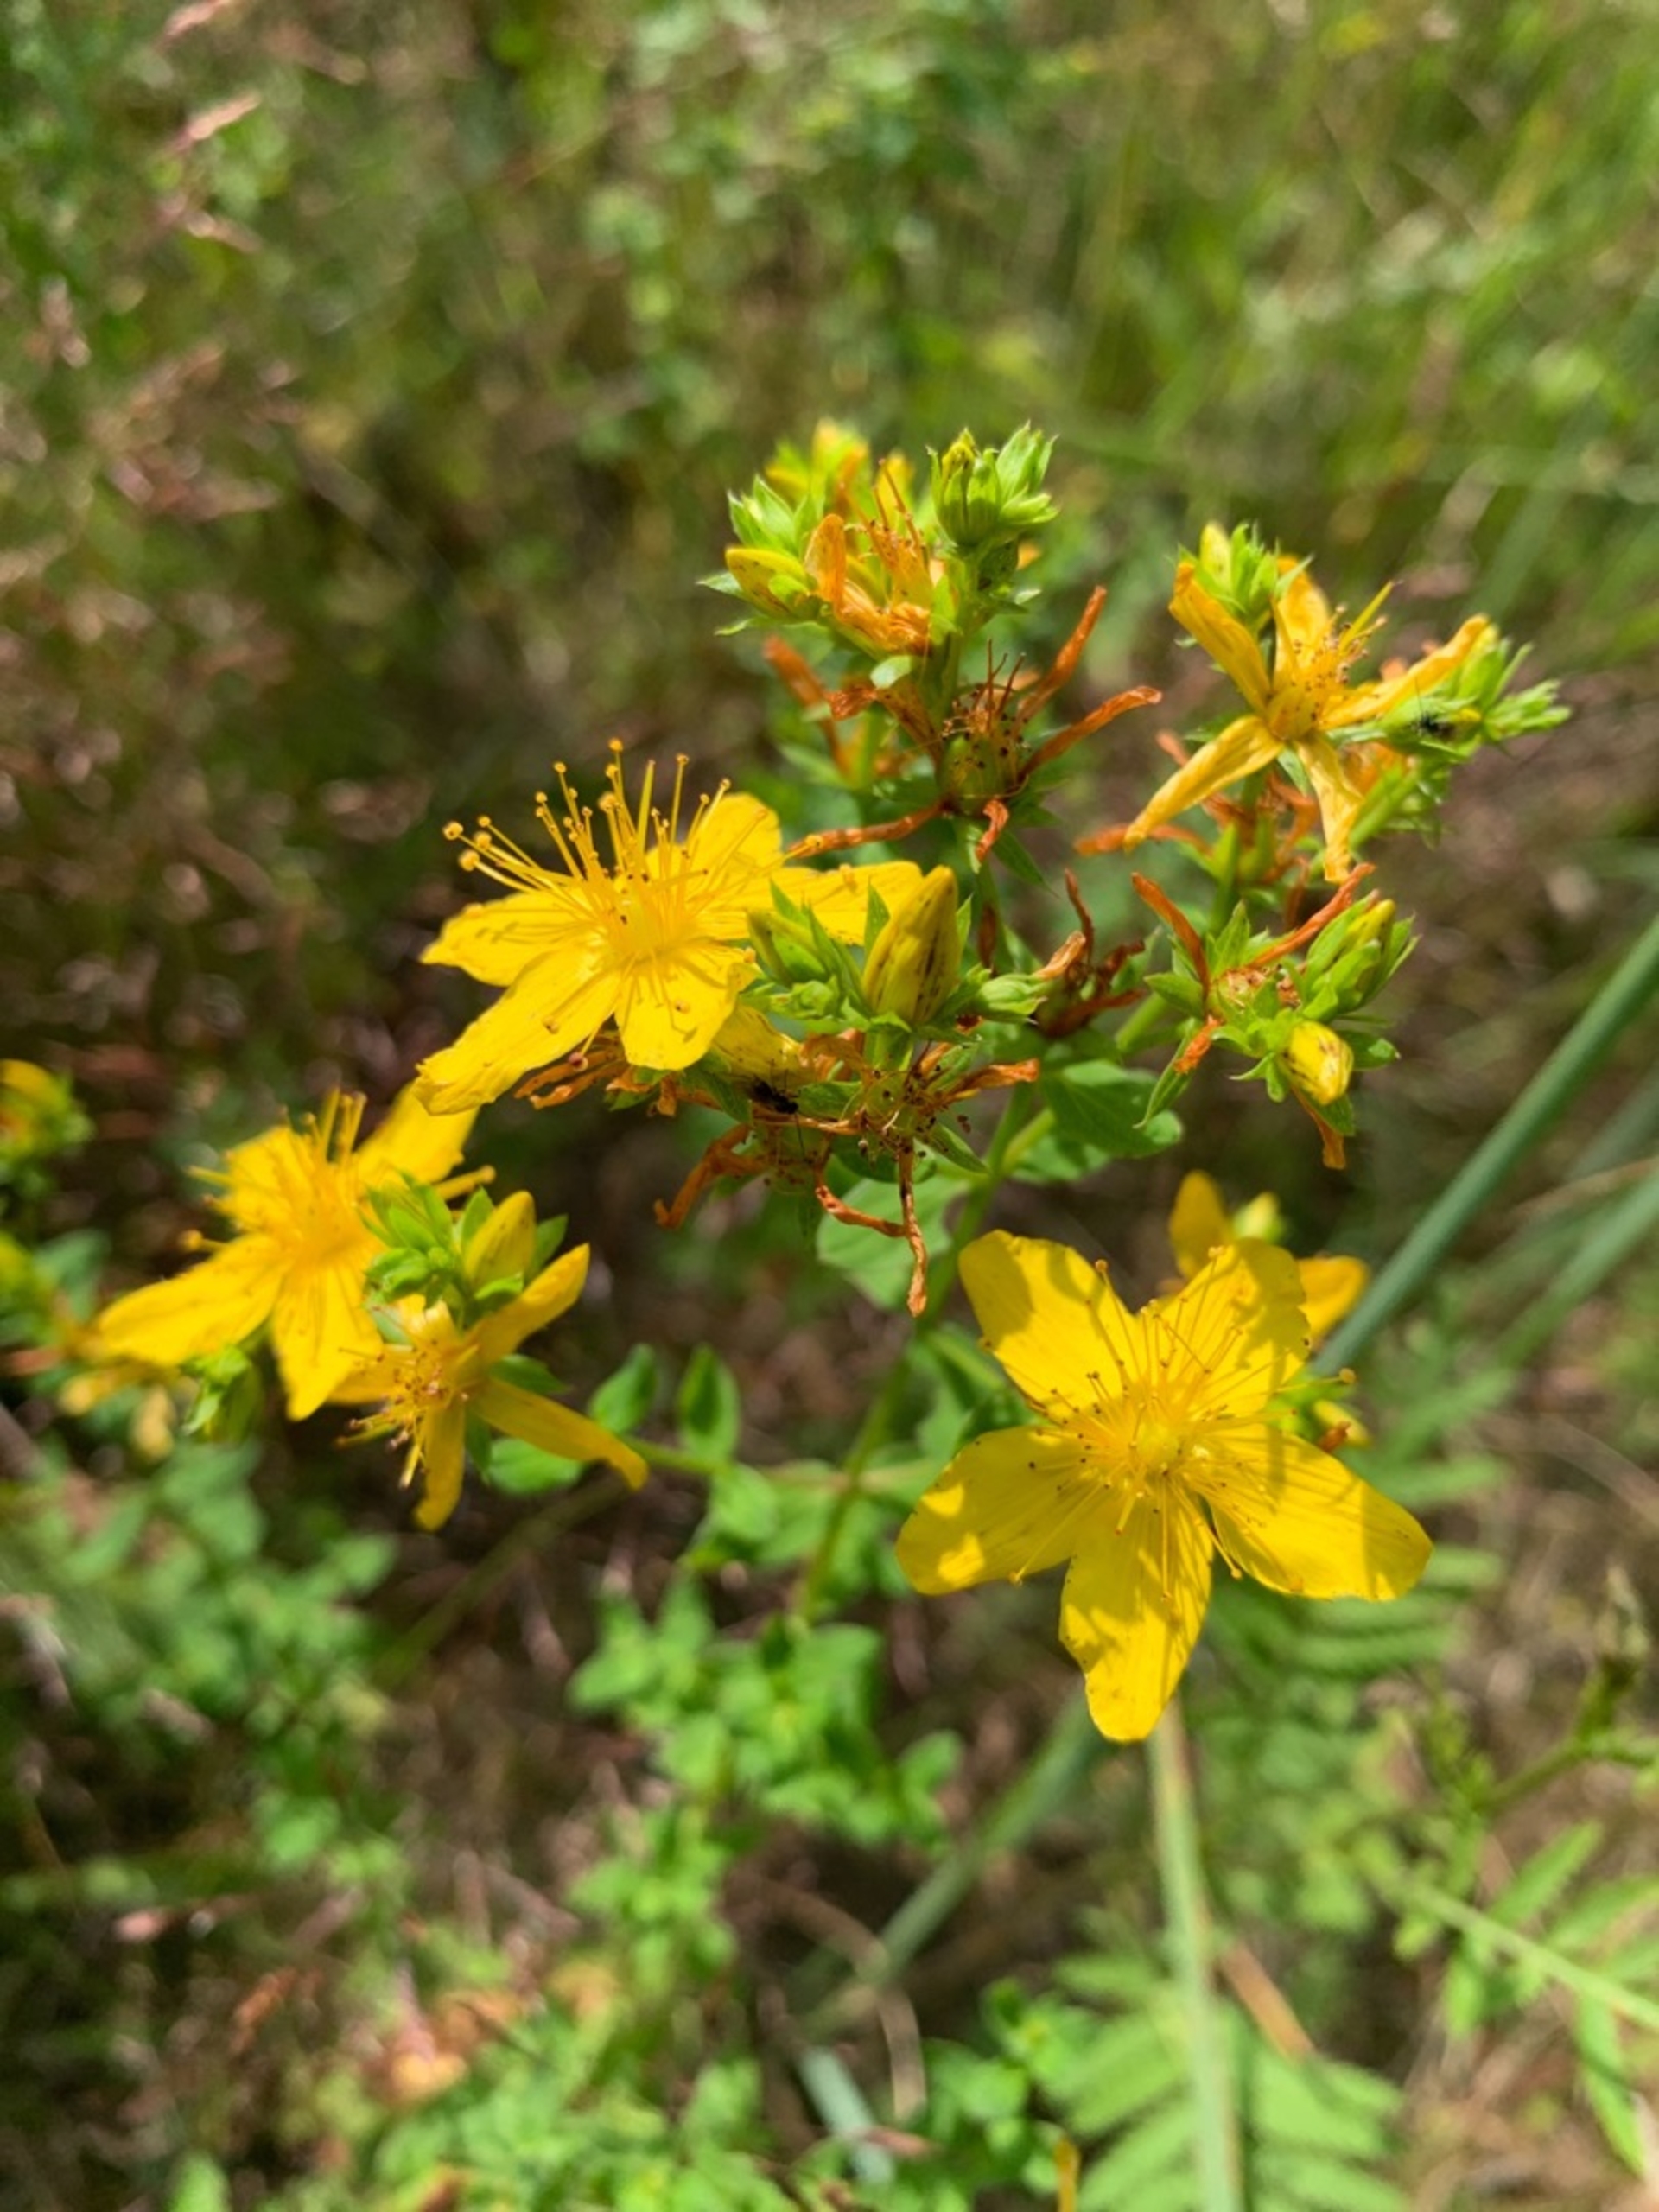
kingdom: Plantae
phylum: Tracheophyta
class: Magnoliopsida
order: Malpighiales
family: Hypericaceae
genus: Hypericum
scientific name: Hypericum perforatum
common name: Prikbladet perikon
